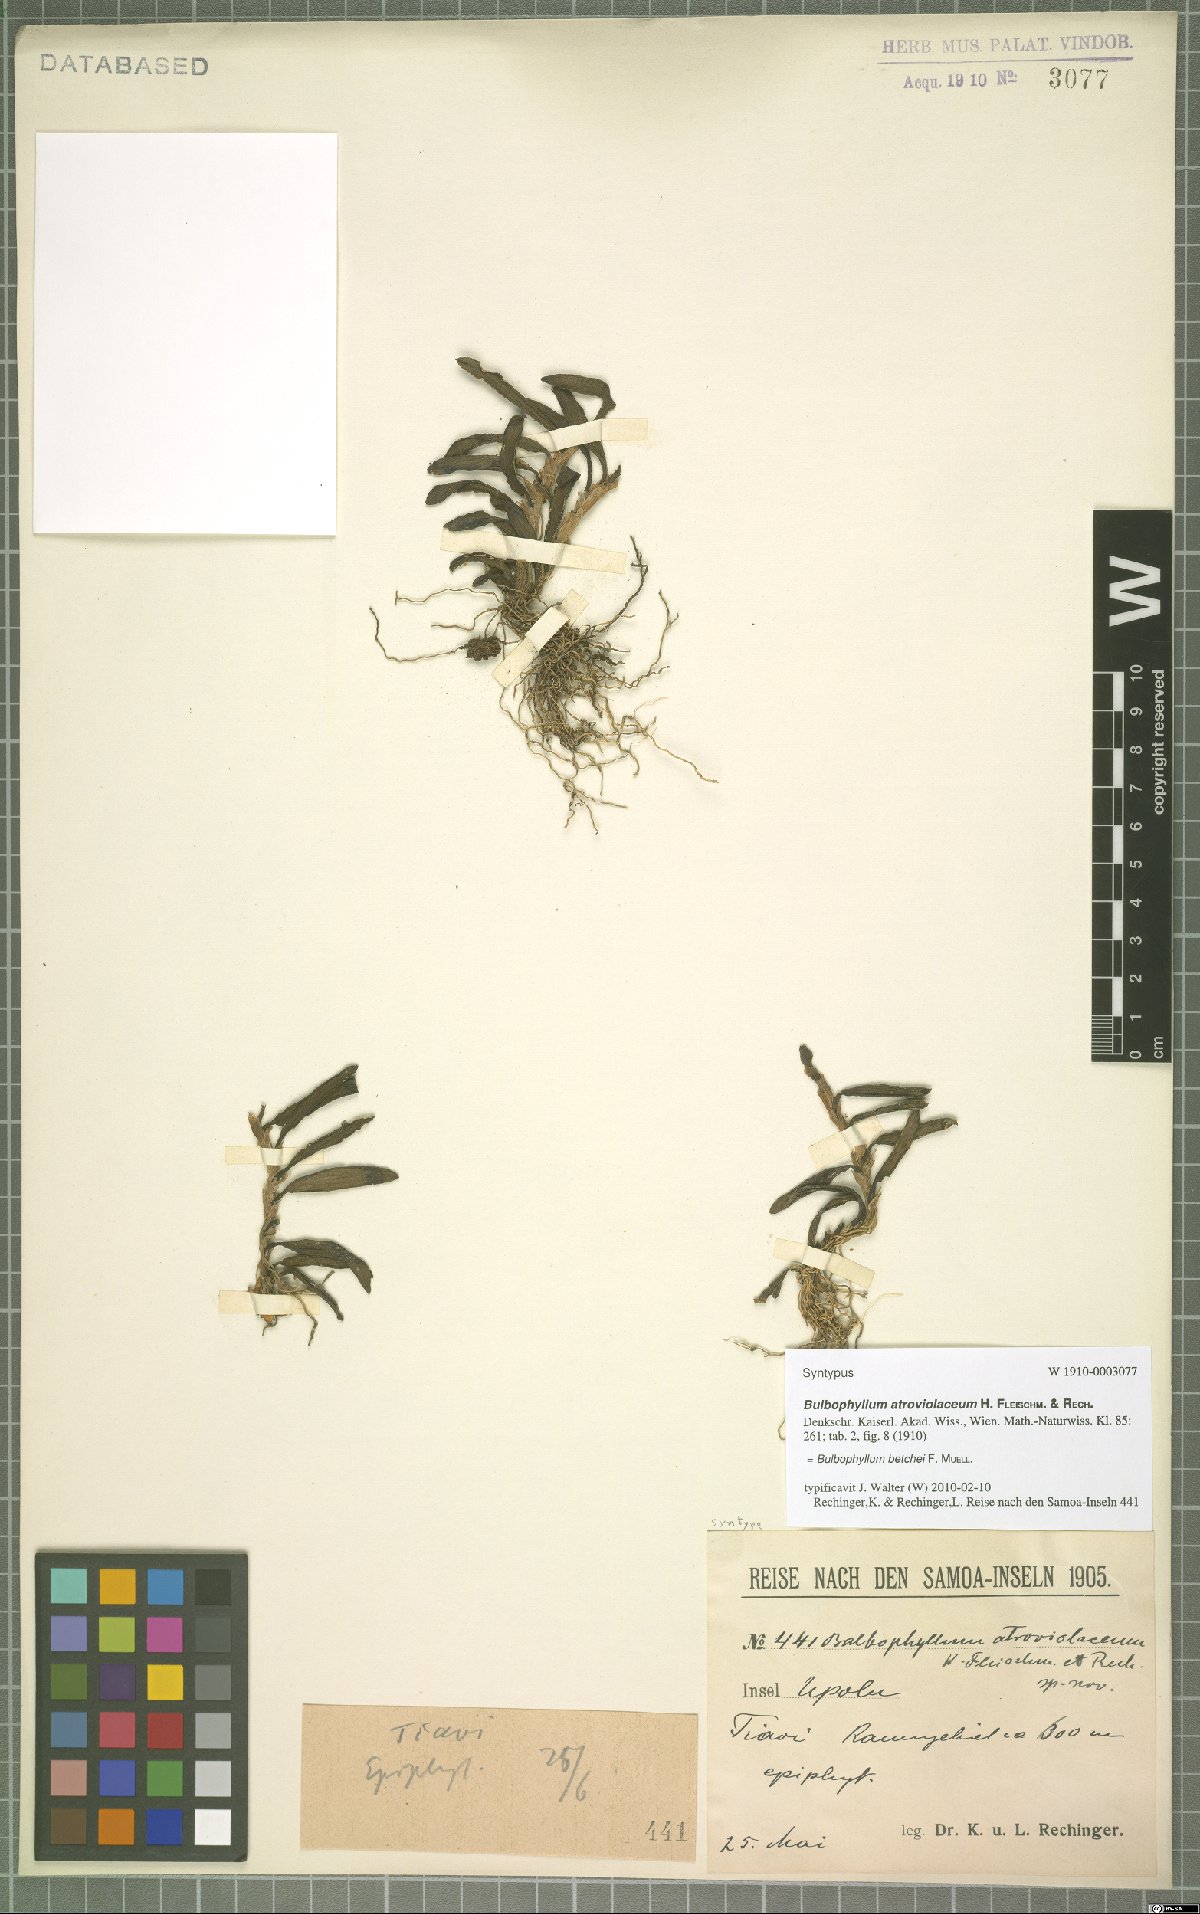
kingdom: Plantae
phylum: Tracheophyta
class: Liliopsida
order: Asparagales
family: Orchidaceae
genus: Bulbophyllum
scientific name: Bulbophyllum betchei
